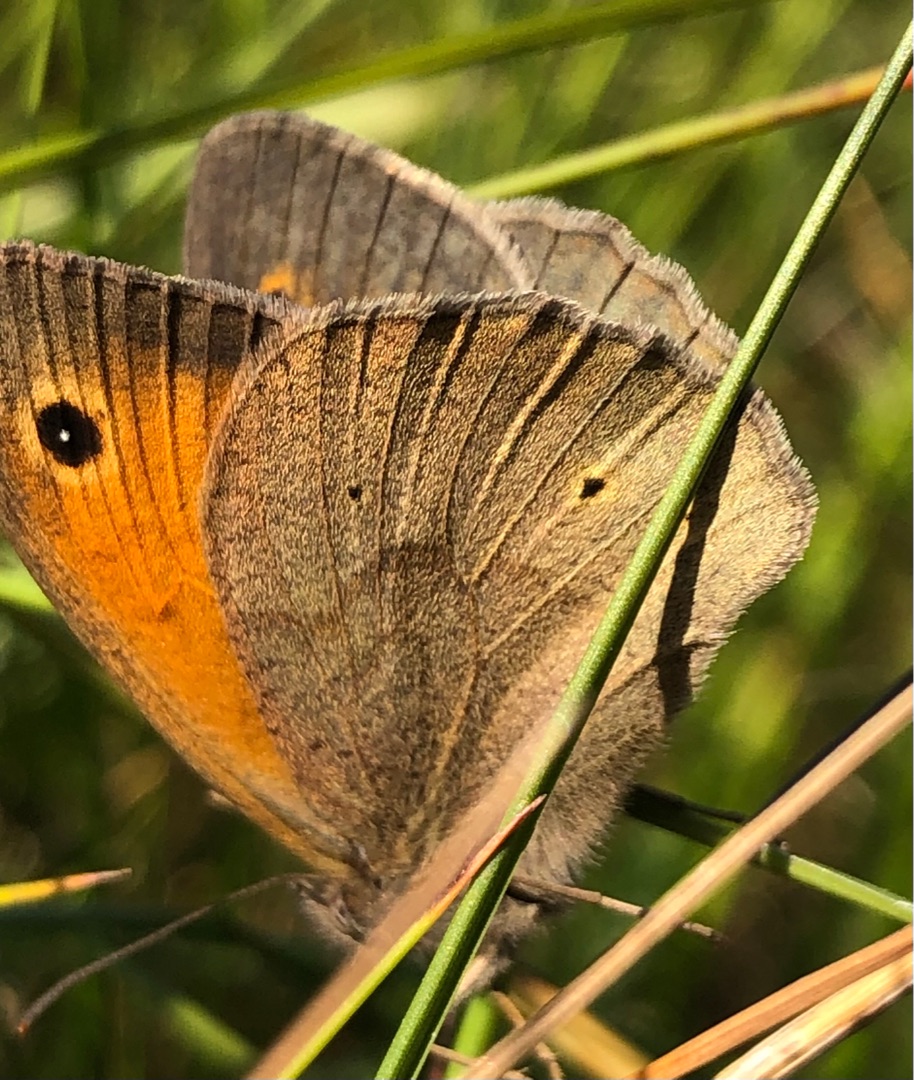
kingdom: Animalia
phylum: Arthropoda
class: Insecta
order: Lepidoptera
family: Nymphalidae
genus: Maniola
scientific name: Maniola jurtina
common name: Græsrandøje
